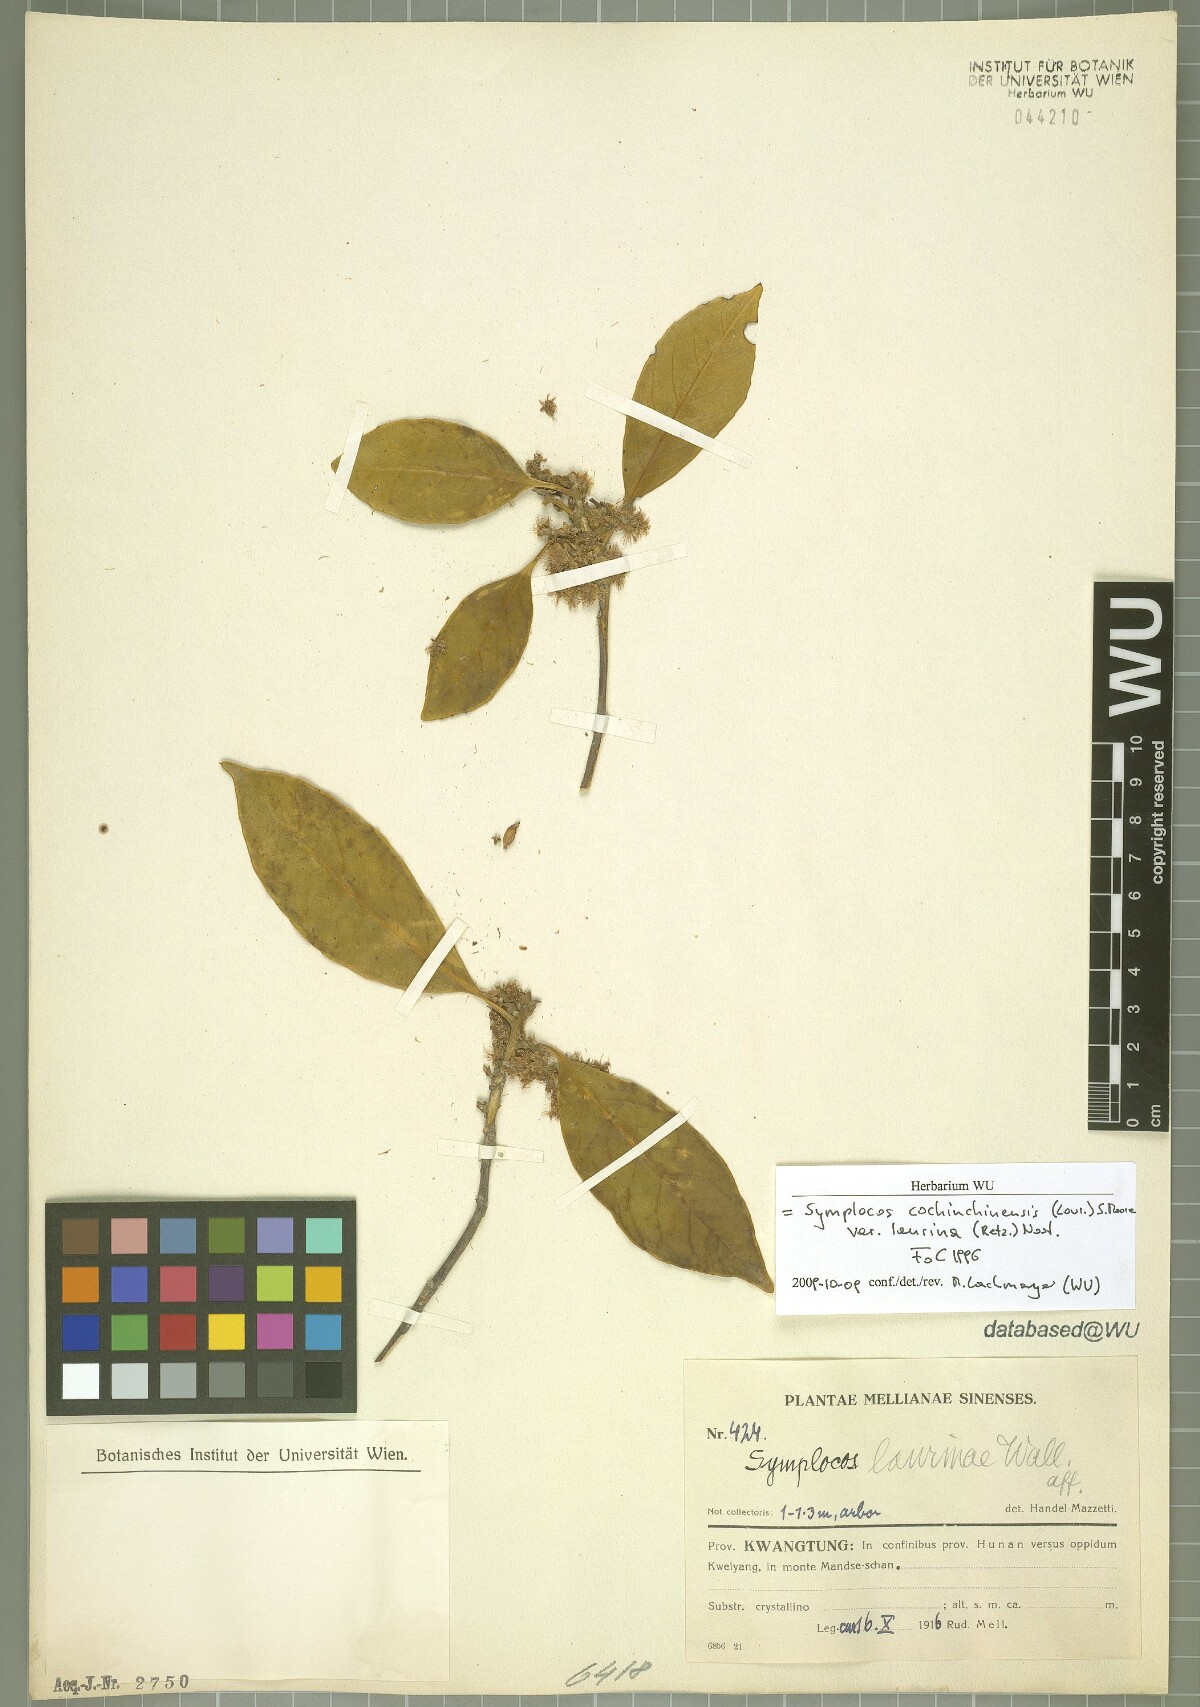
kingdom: Plantae
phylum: Tracheophyta
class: Magnoliopsida
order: Ericales
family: Symplocaceae
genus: Symplocos
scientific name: Symplocos acuminata
